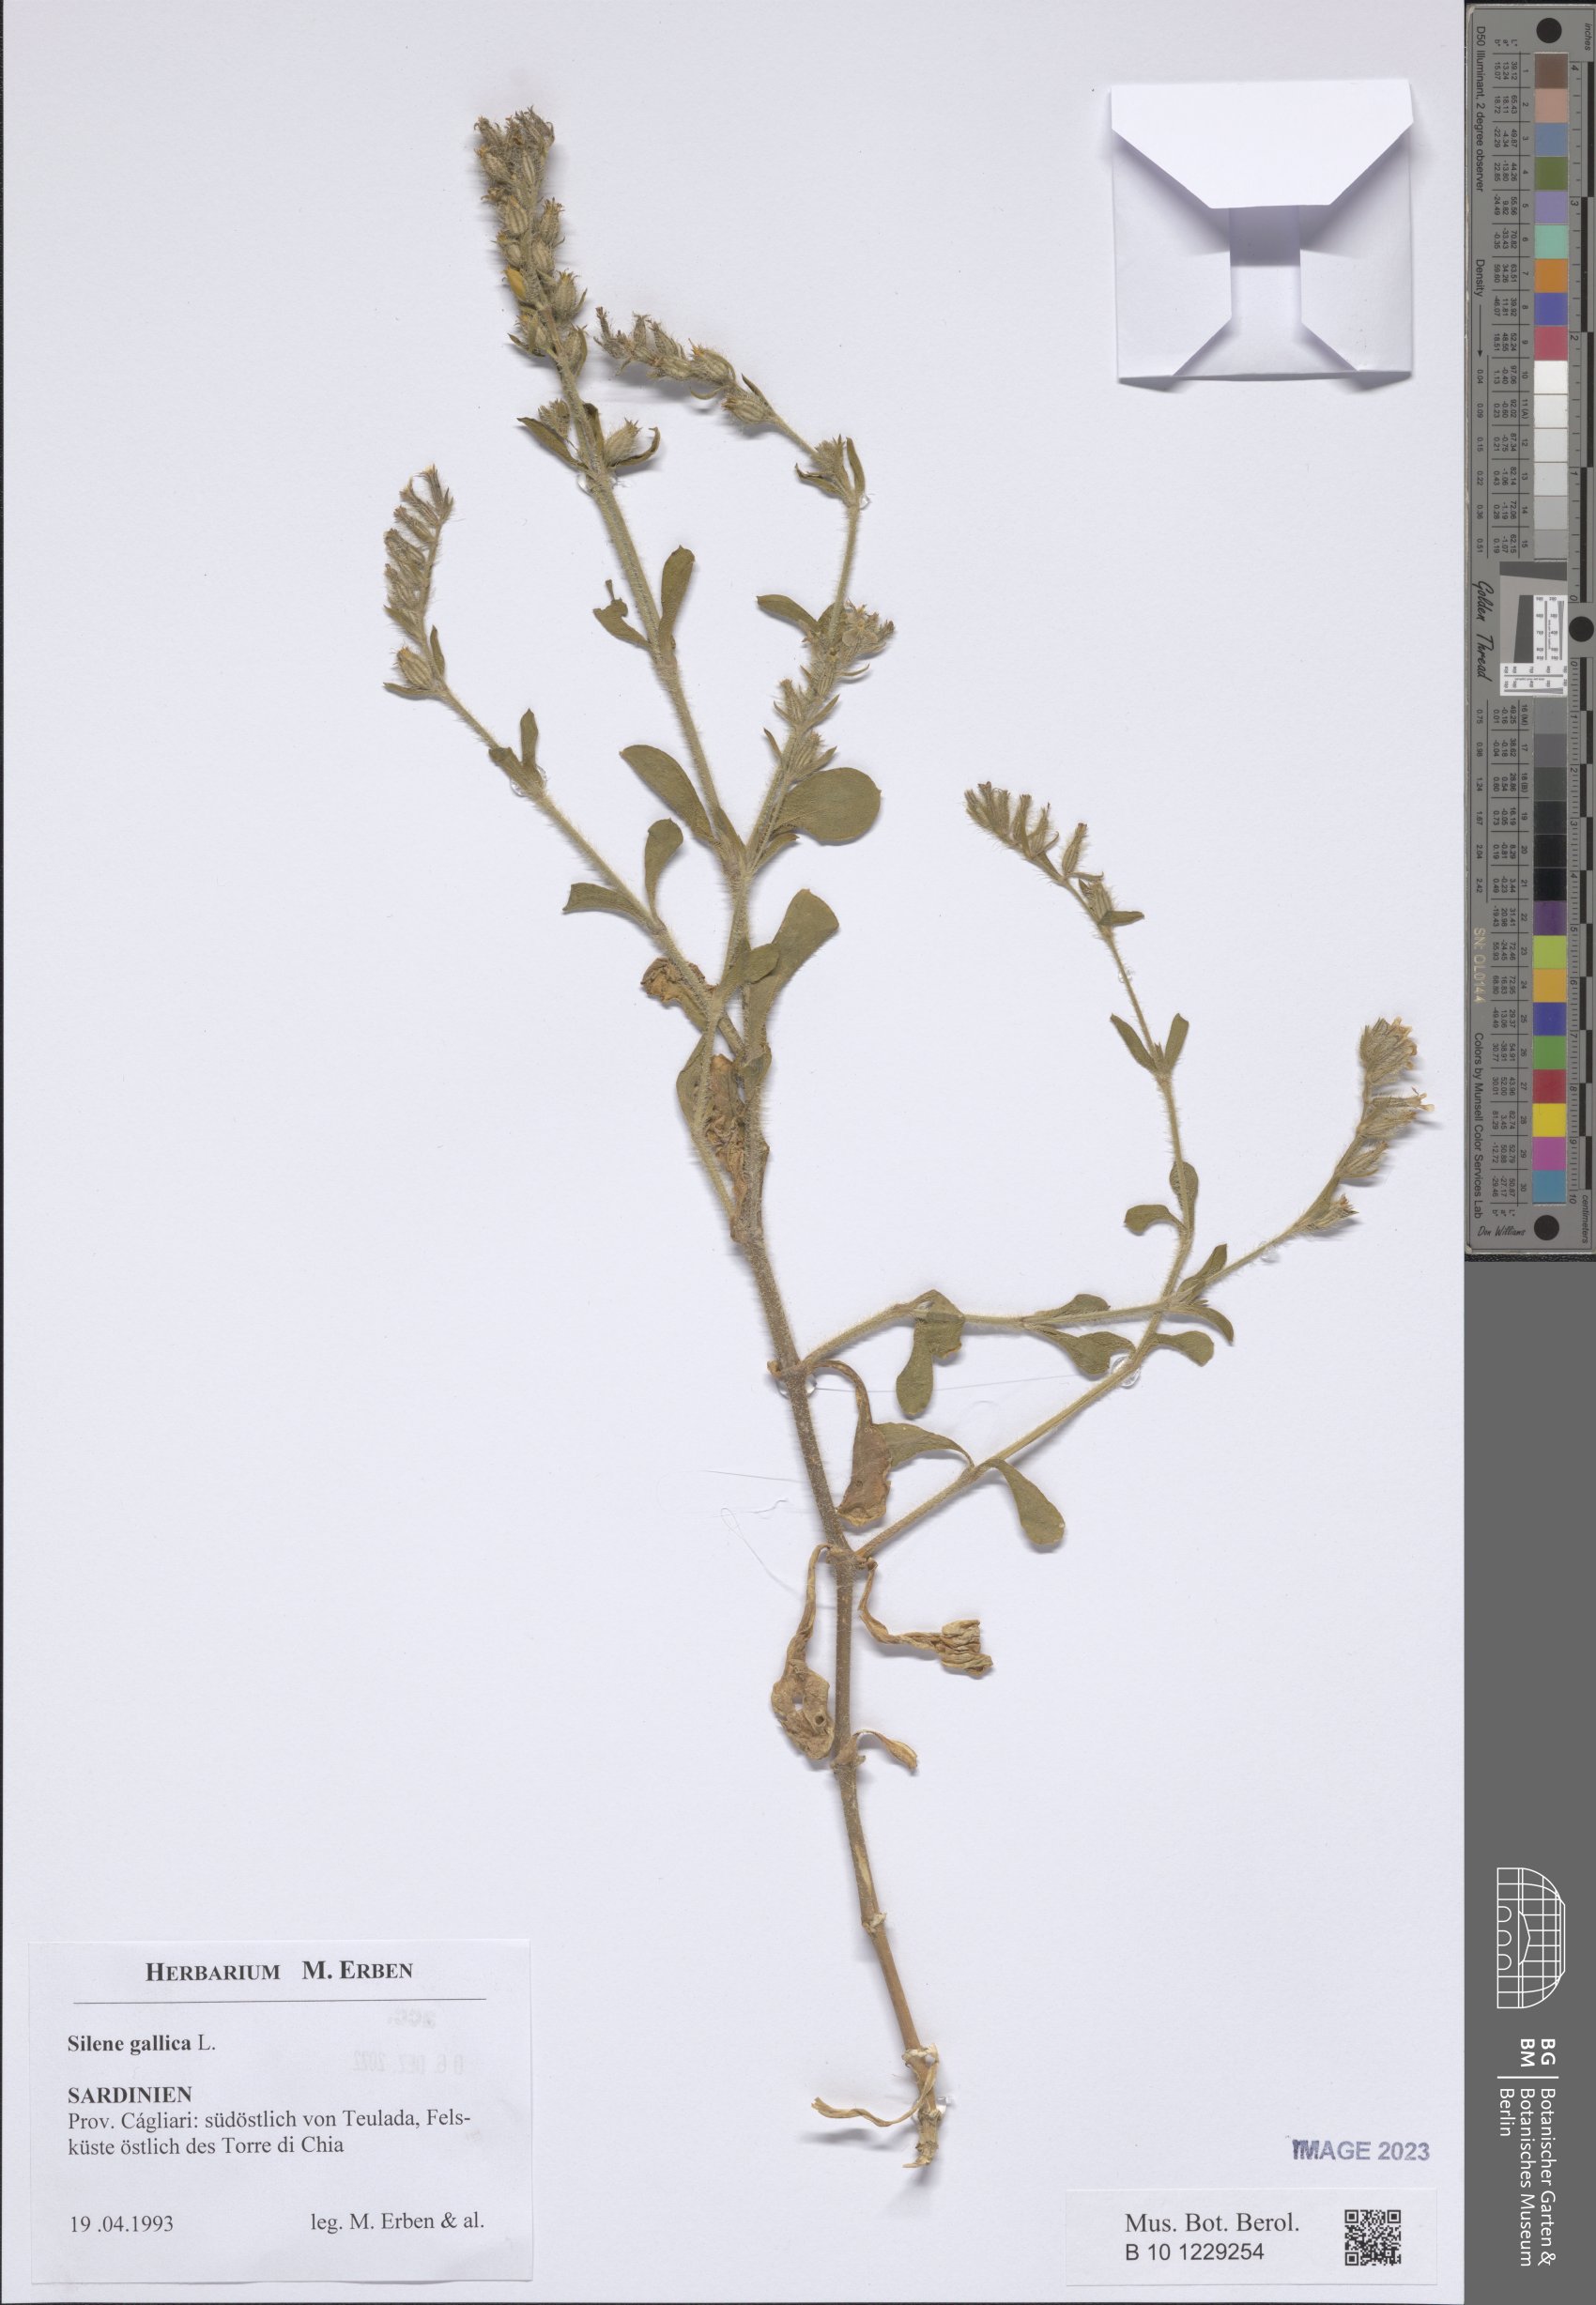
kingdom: Plantae
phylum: Tracheophyta
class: Magnoliopsida
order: Caryophyllales
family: Caryophyllaceae
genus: Silene
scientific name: Silene gallica
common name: Small-flowered catchfly
